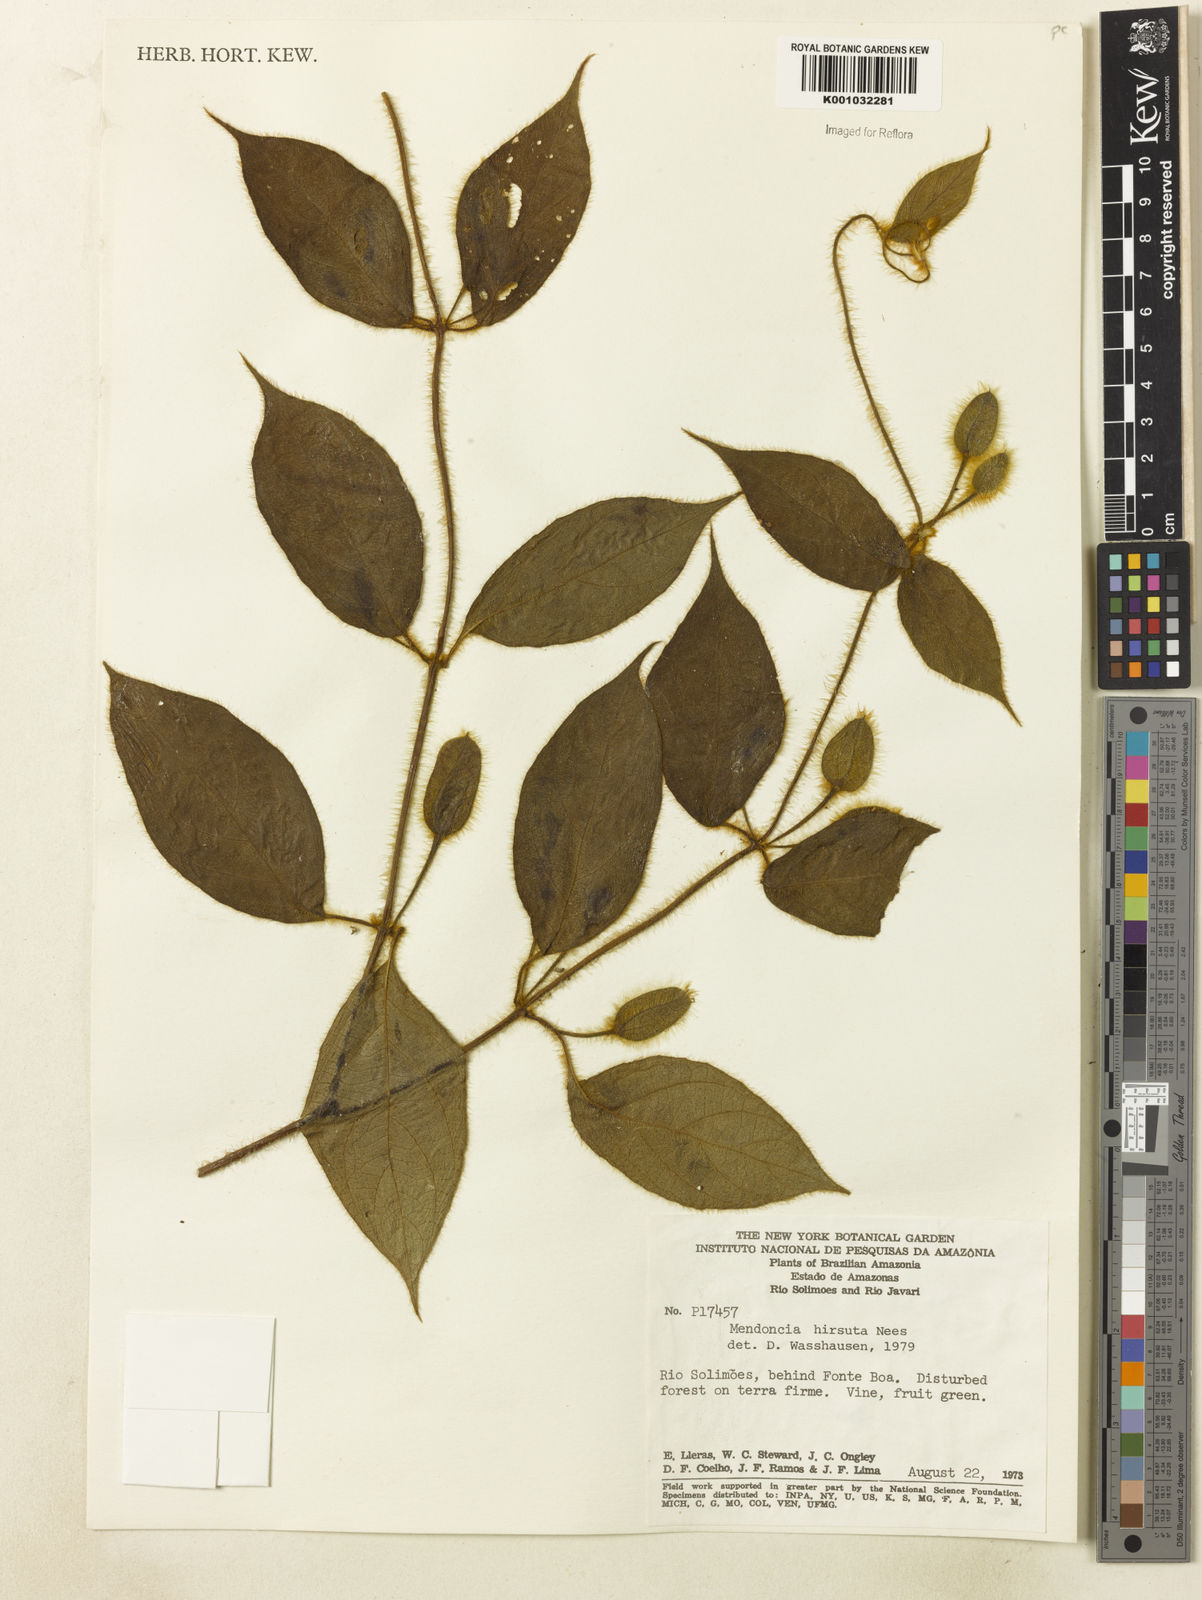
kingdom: Plantae
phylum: Tracheophyta
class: Magnoliopsida
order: Lamiales
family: Acanthaceae
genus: Mendoncia
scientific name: Mendoncia
